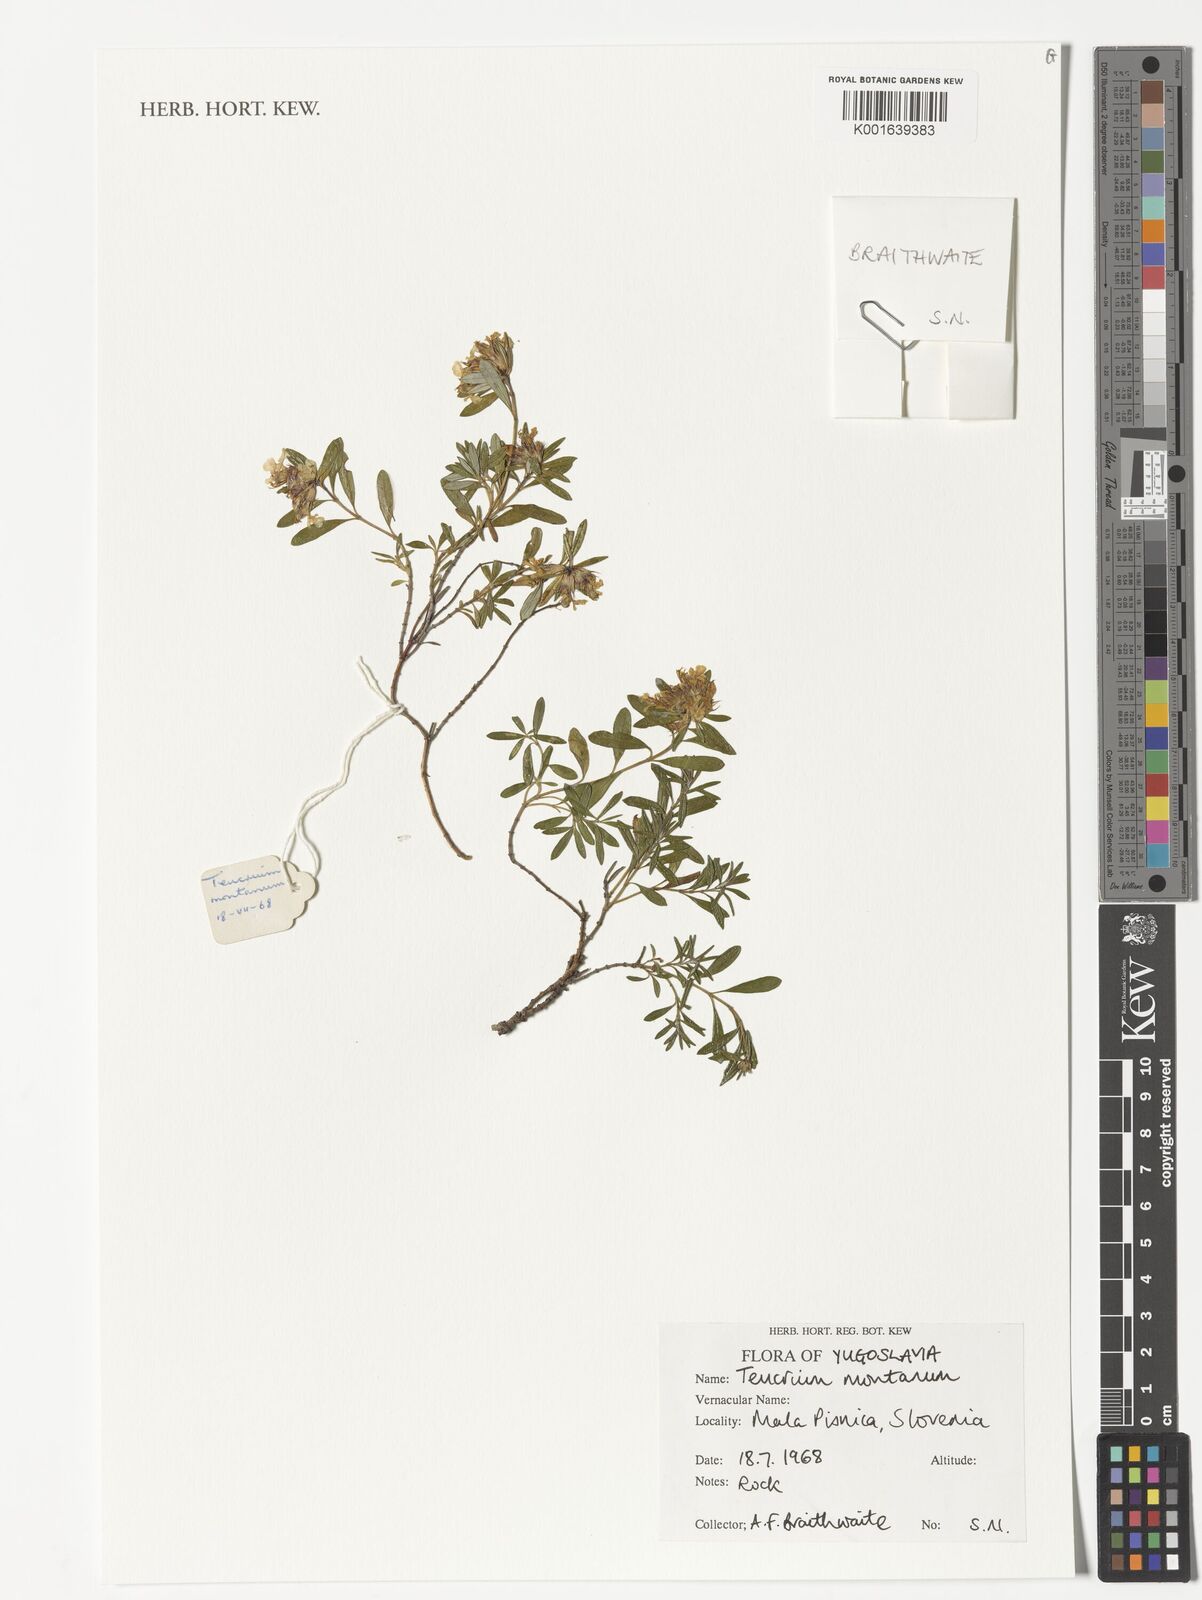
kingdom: Plantae
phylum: Tracheophyta
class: Magnoliopsida
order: Lamiales
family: Lamiaceae
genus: Teucrium
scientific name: Teucrium montanum
